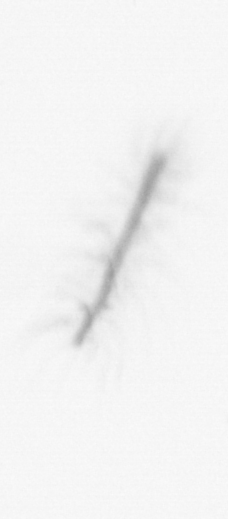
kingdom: Chromista
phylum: Ochrophyta
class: Bacillariophyceae
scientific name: Bacillariophyceae
